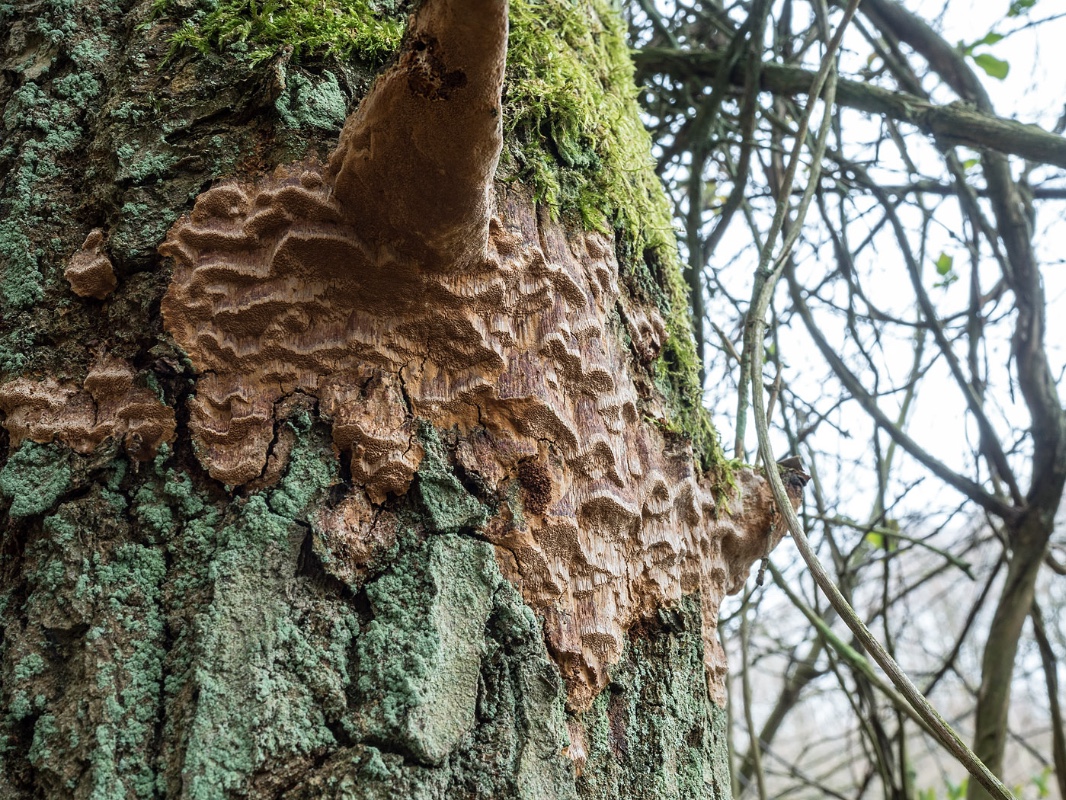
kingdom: Fungi
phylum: Basidiomycota
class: Agaricomycetes
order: Hymenochaetales
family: Hymenochaetaceae
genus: Fuscoporia
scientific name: Fuscoporia ferrea
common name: skorpe-ildporesvamp
